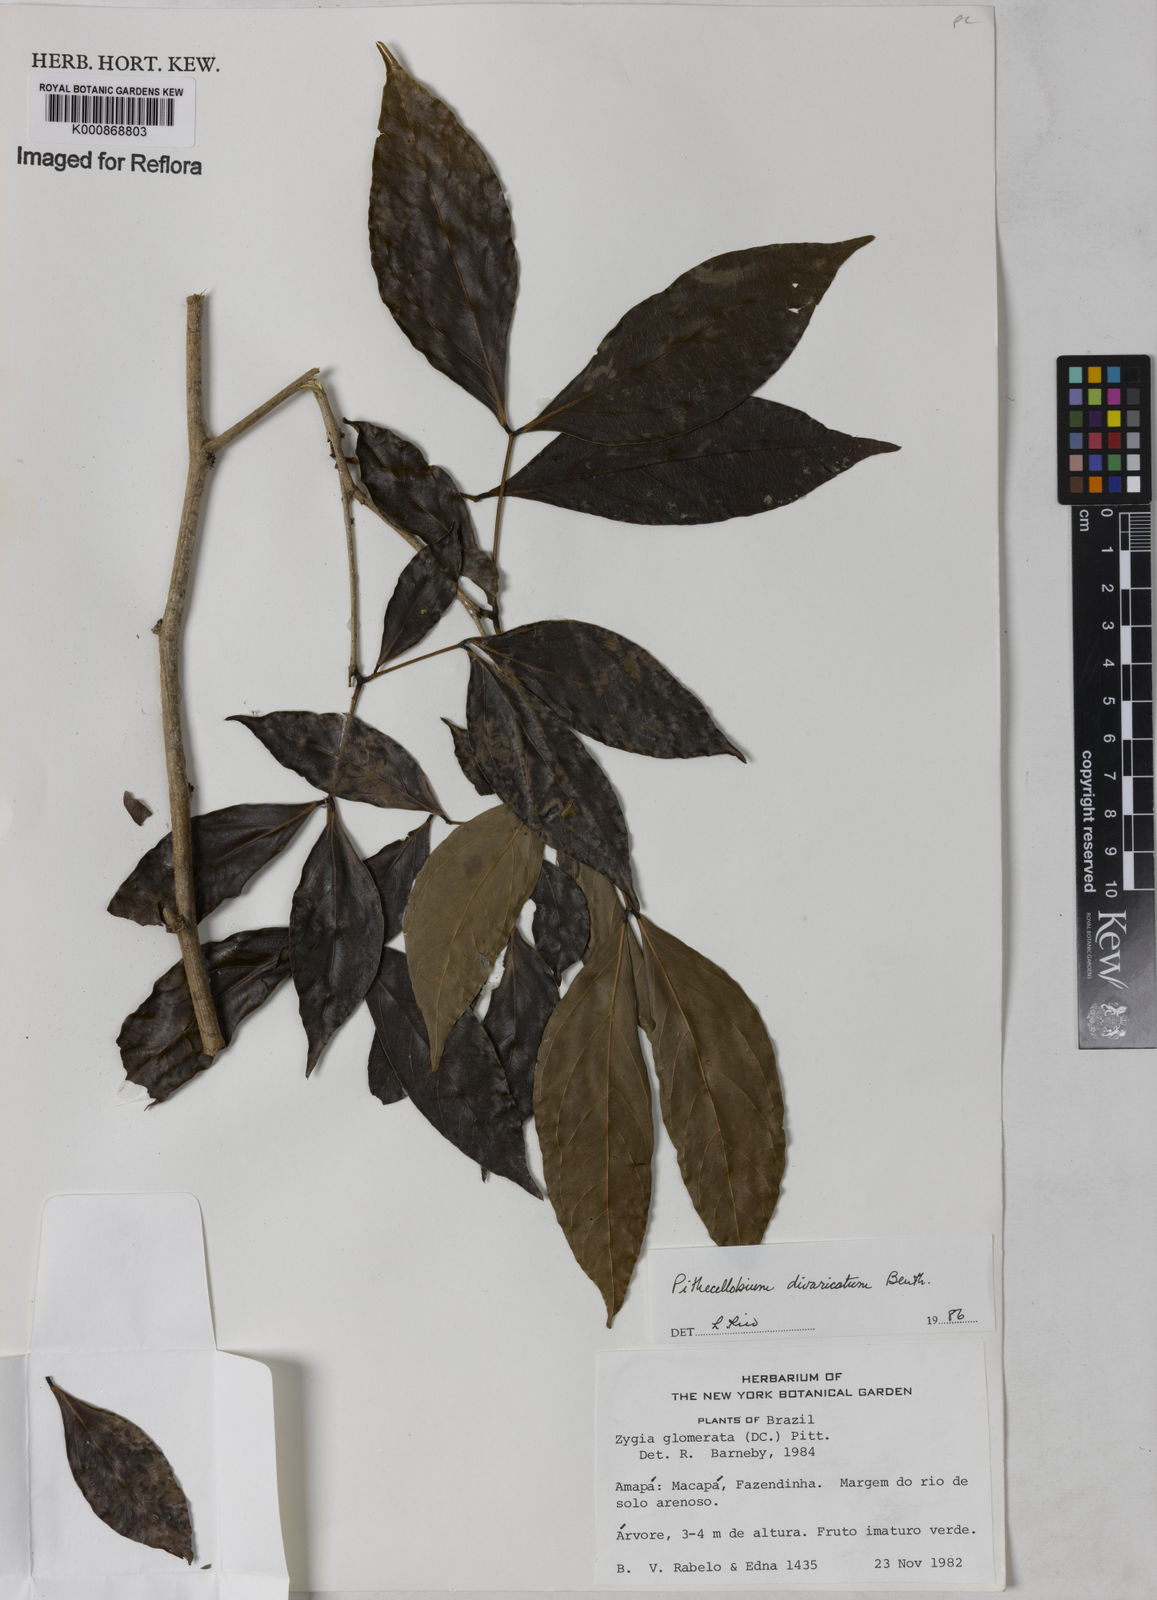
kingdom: Plantae
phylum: Tracheophyta
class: Magnoliopsida
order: Fabales
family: Fabaceae
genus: Zygia
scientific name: Zygia cataractae
